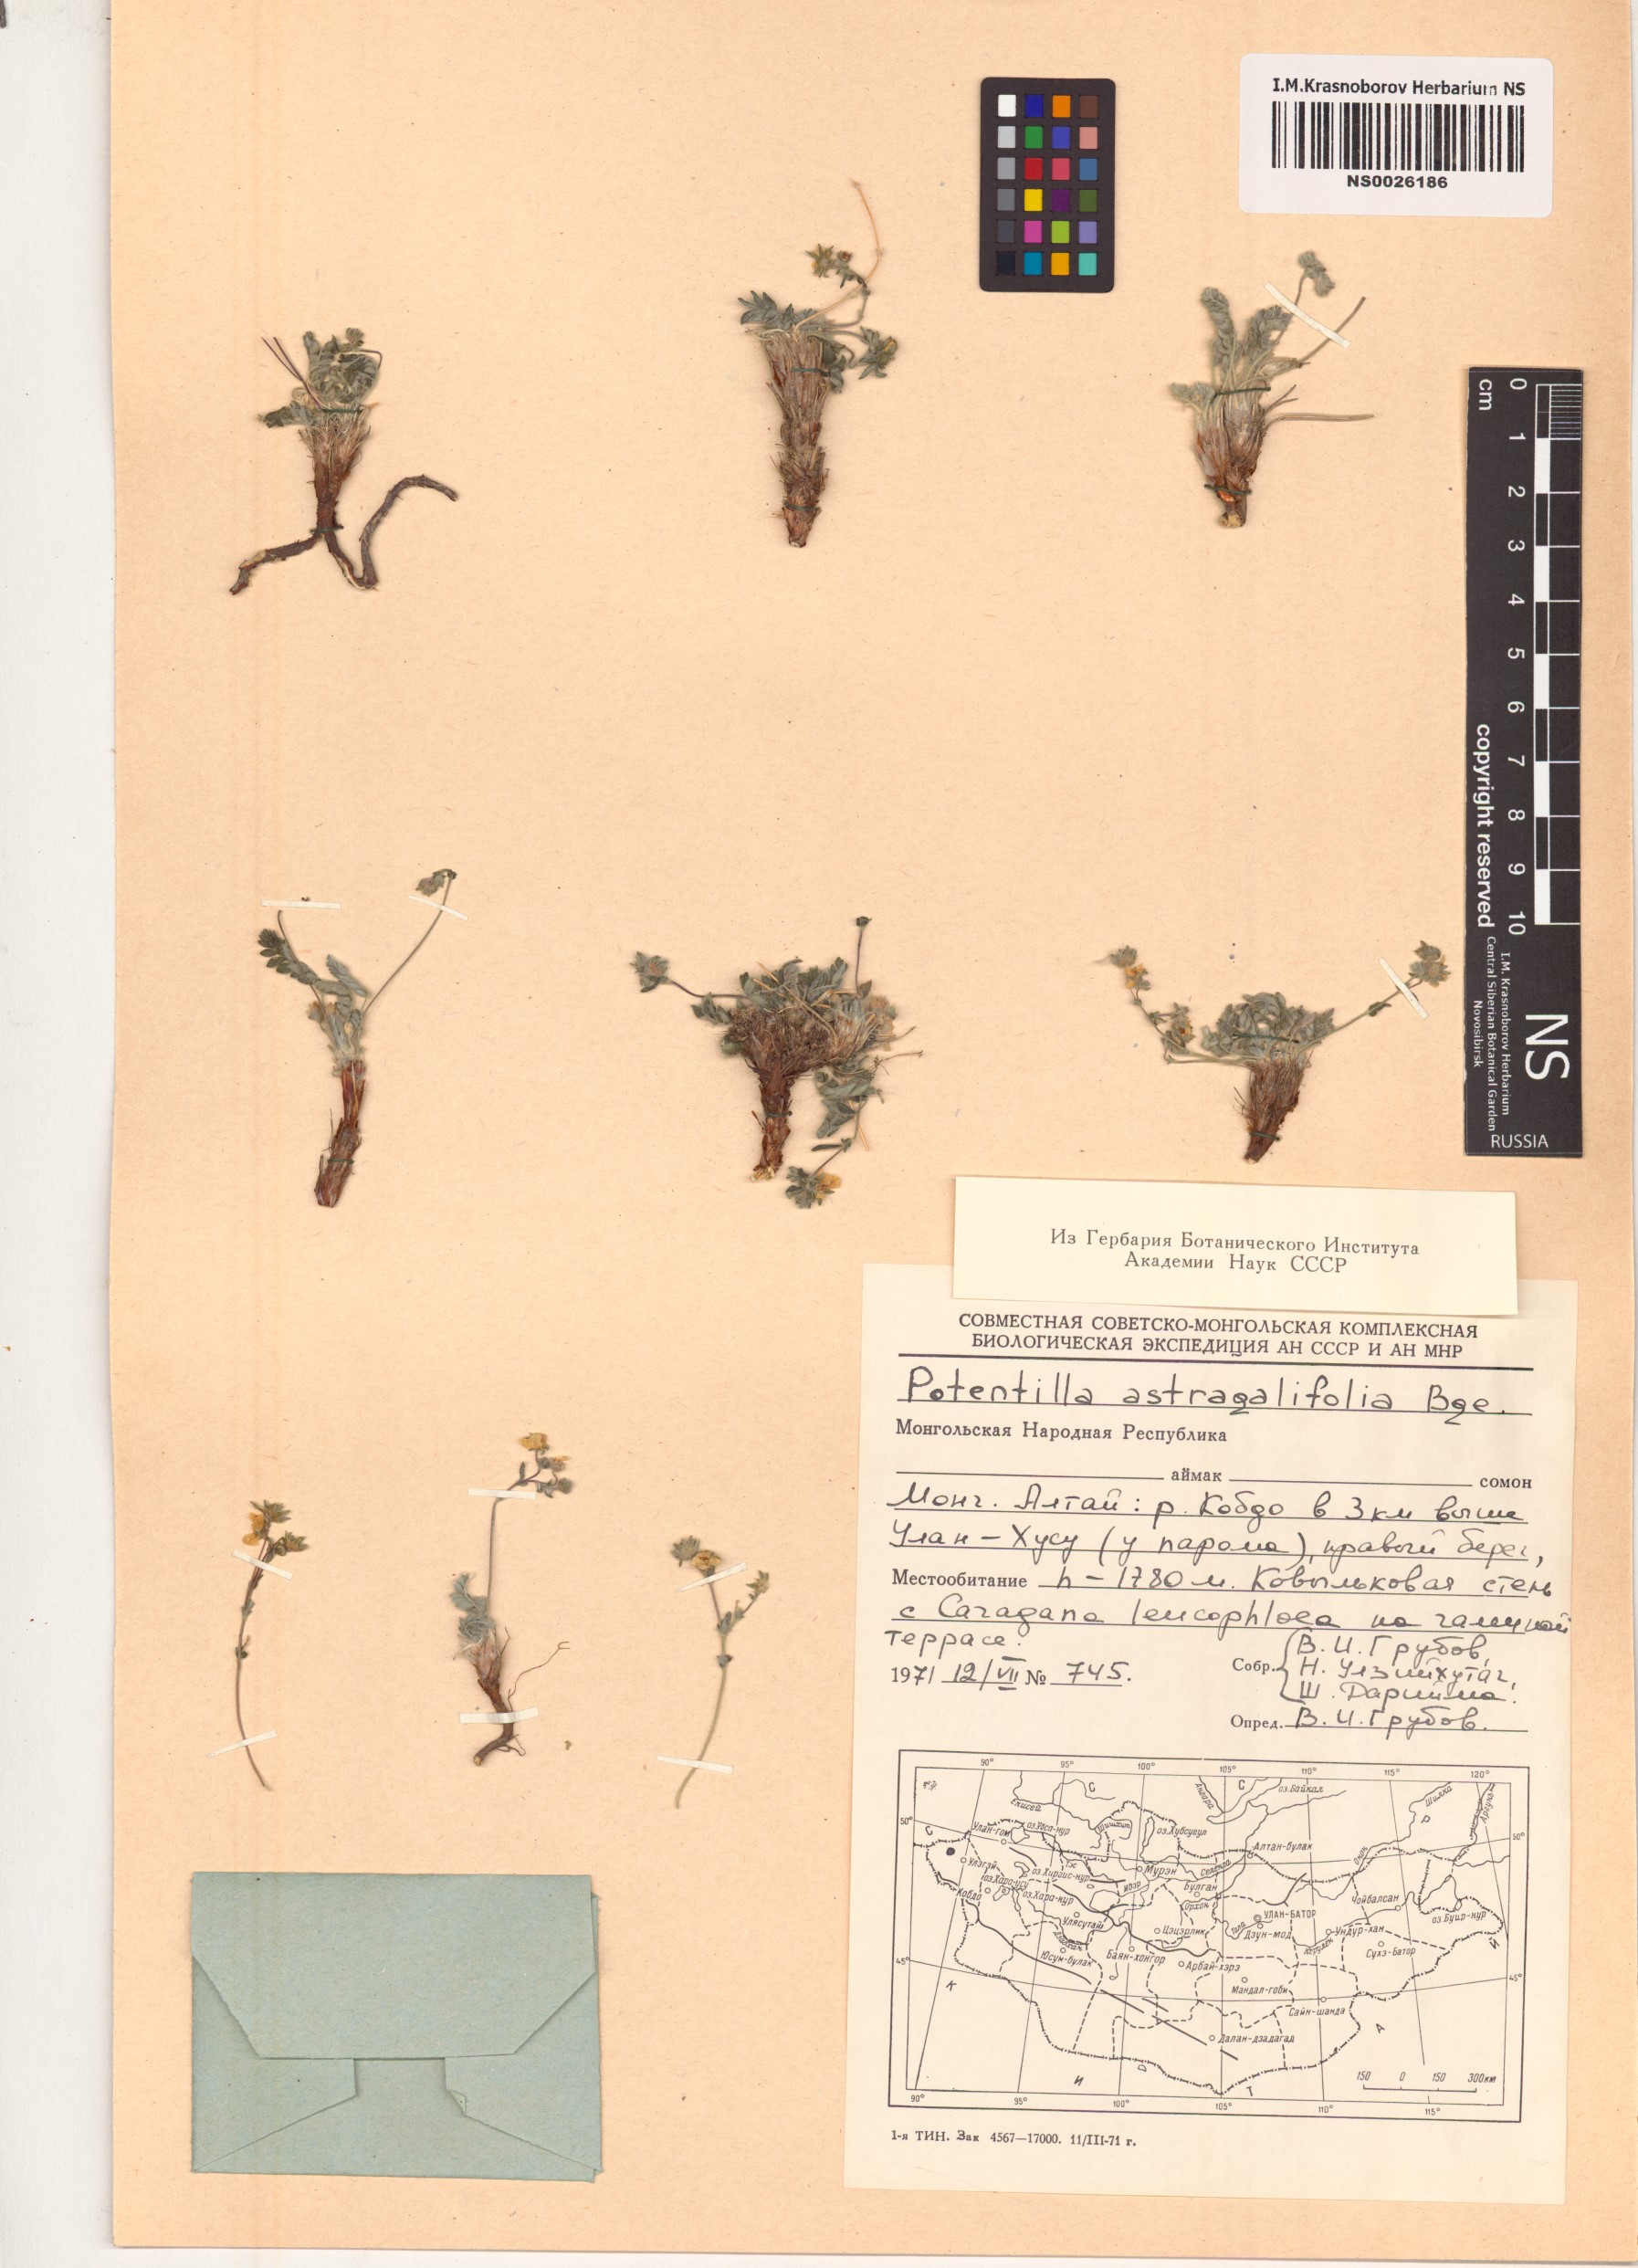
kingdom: Plantae
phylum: Tracheophyta
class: Magnoliopsida
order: Rosales
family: Rosaceae
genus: Potentilla
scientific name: Potentilla astragalifolia
